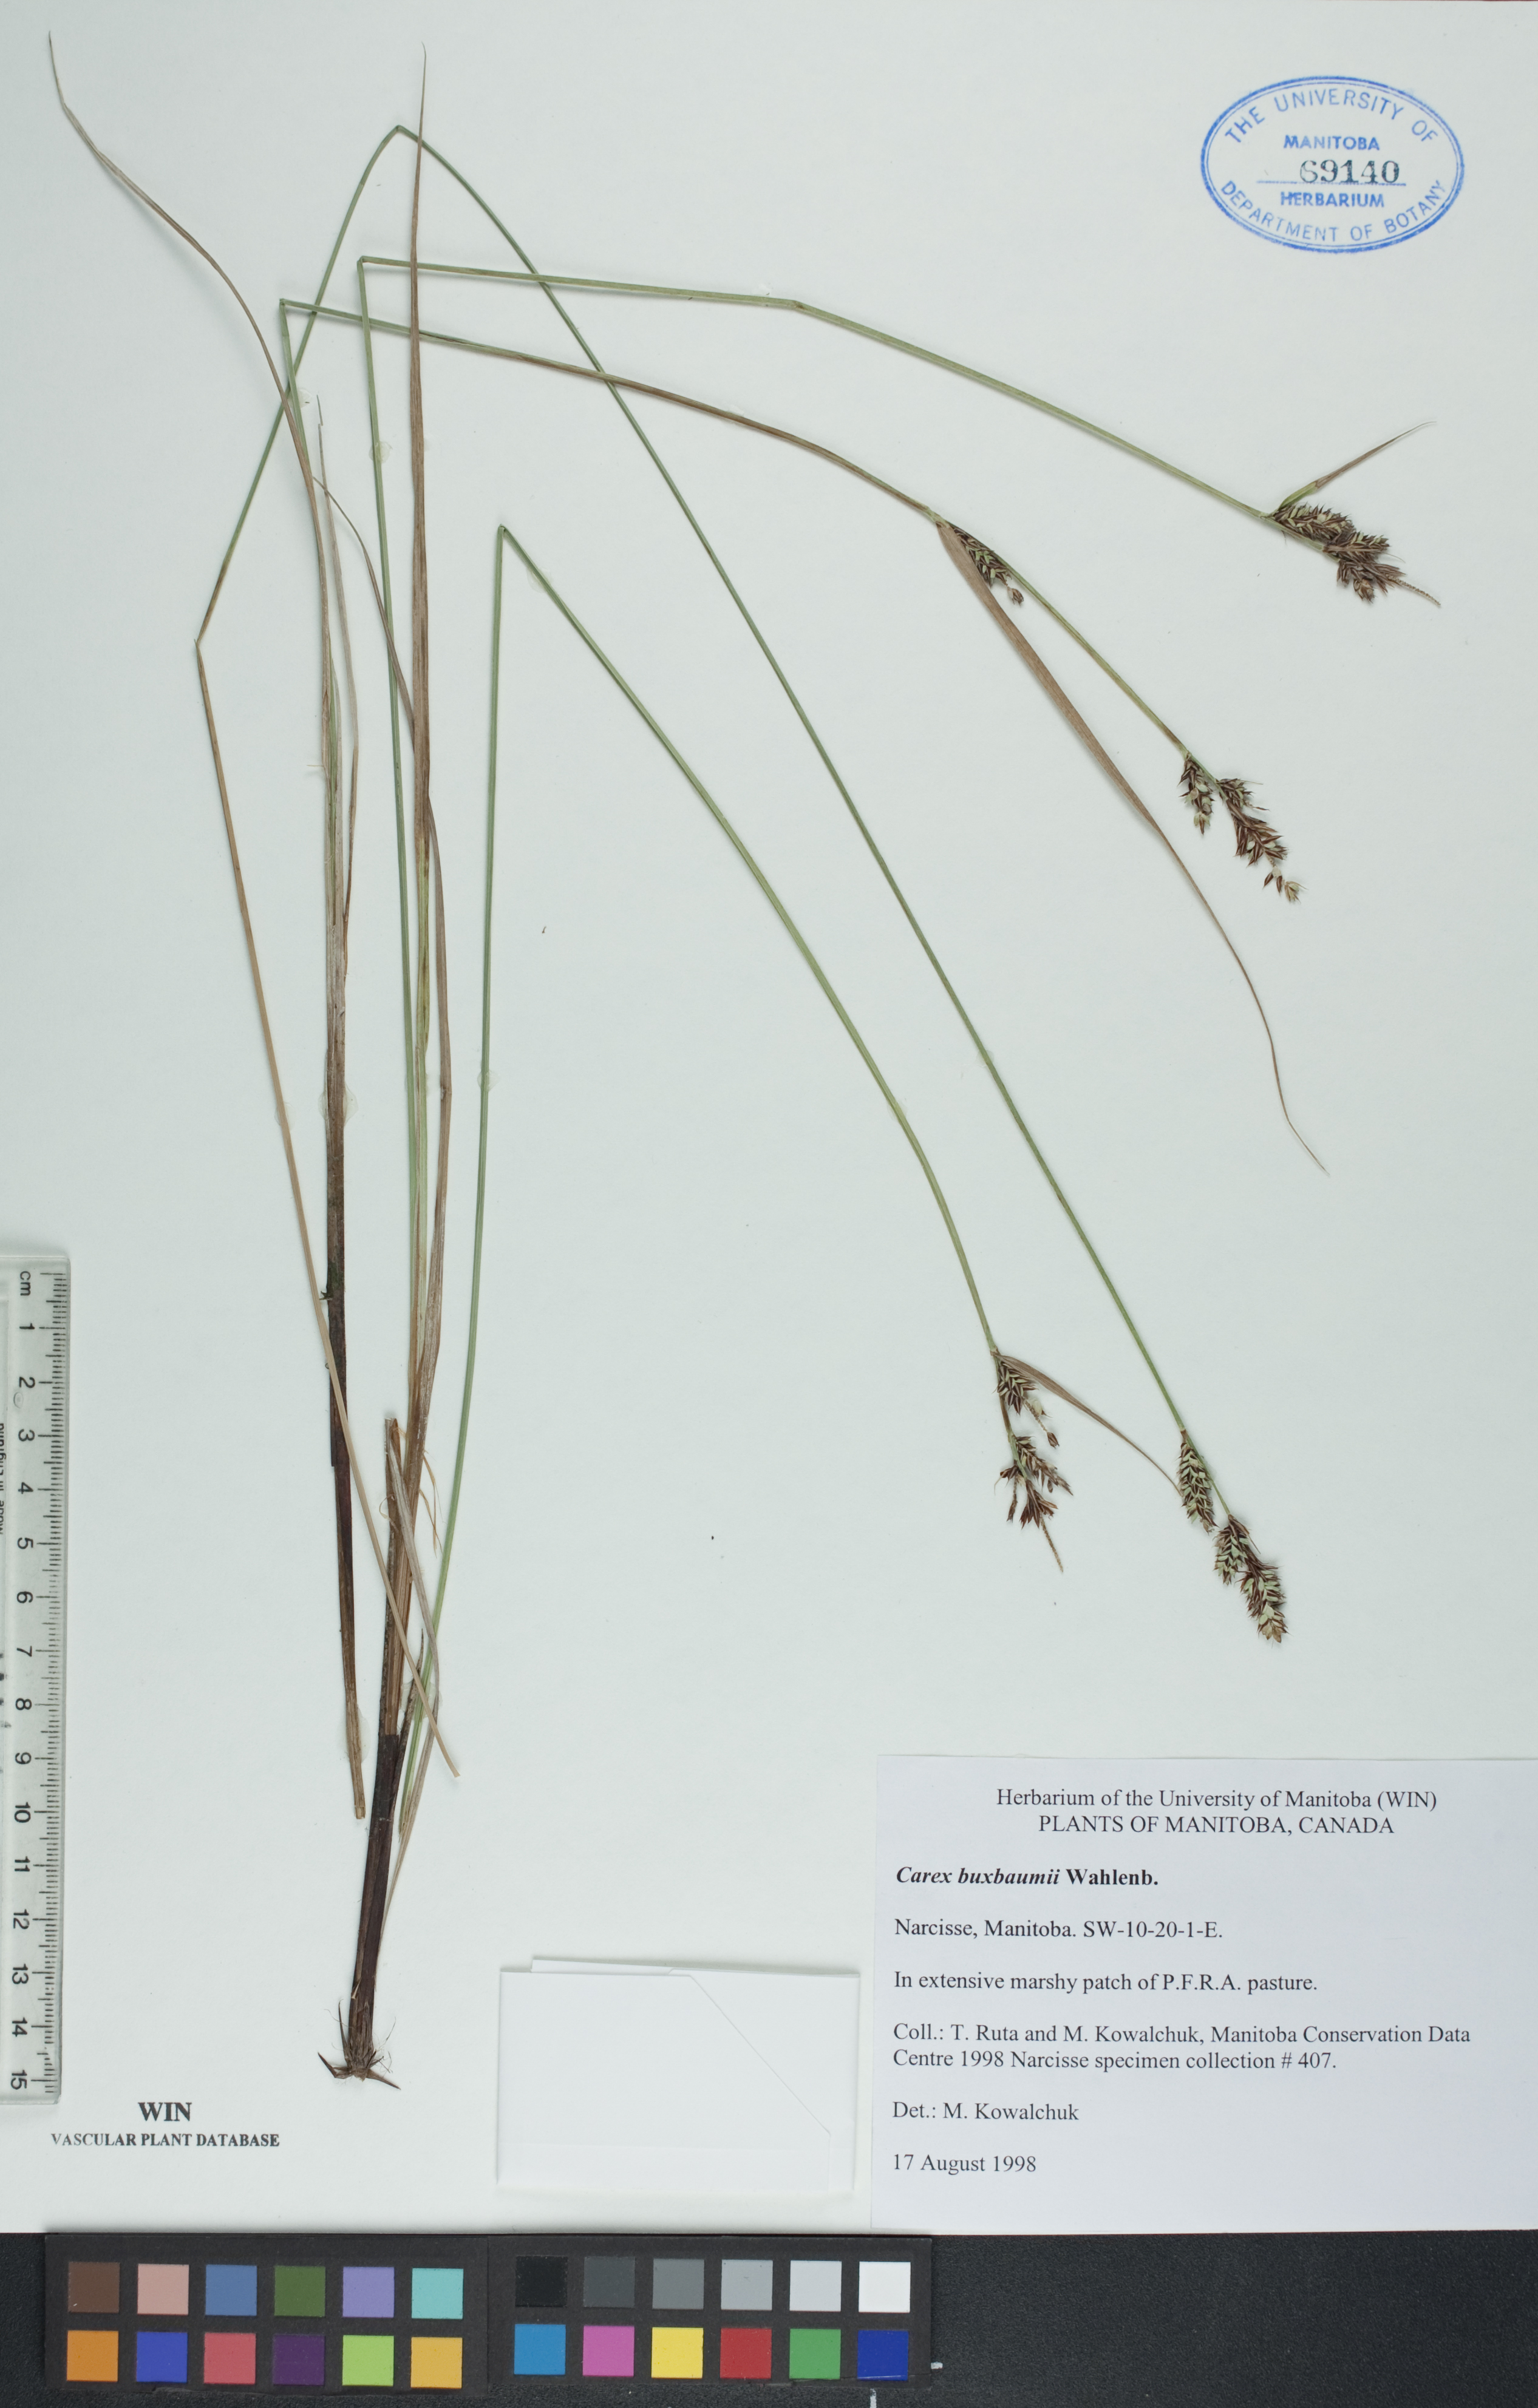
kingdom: Plantae
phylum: Tracheophyta
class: Liliopsida
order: Poales
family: Cyperaceae
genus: Carex
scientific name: Carex buxbaumii
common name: Club sedge
